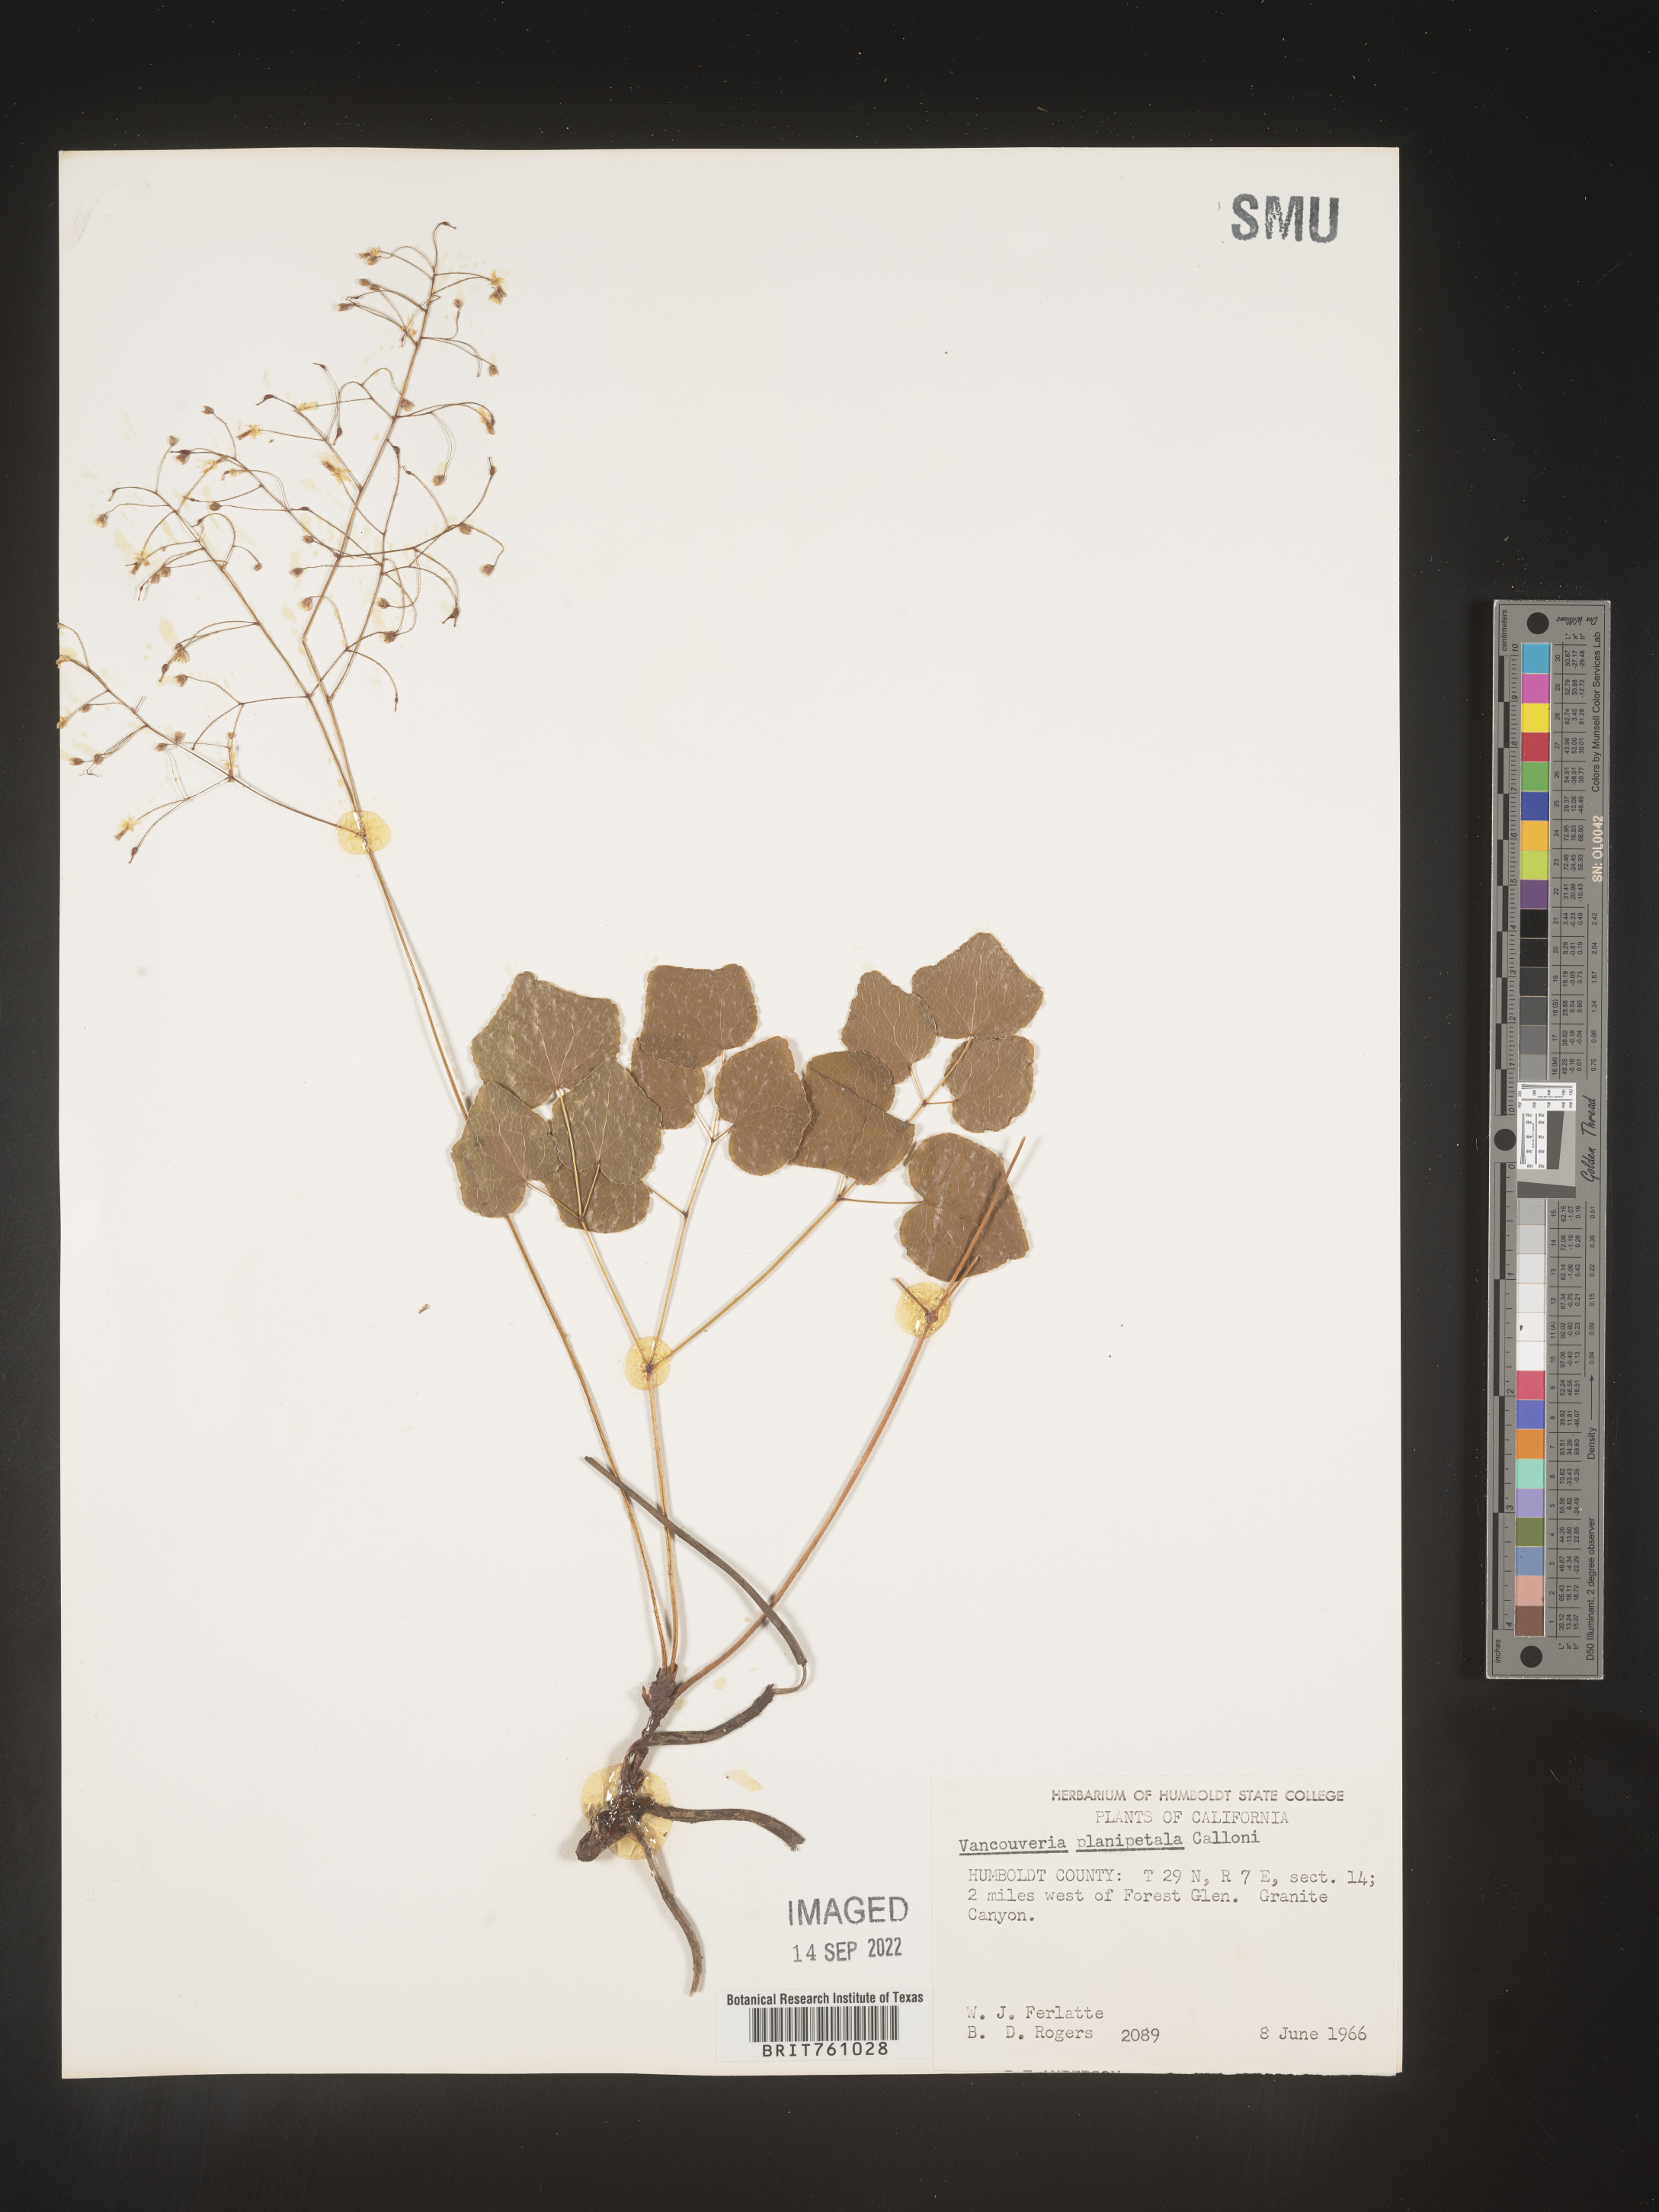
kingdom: Plantae
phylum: Tracheophyta
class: Magnoliopsida
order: Ranunculales
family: Berberidaceae
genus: Vancouveria
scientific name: Vancouveria
